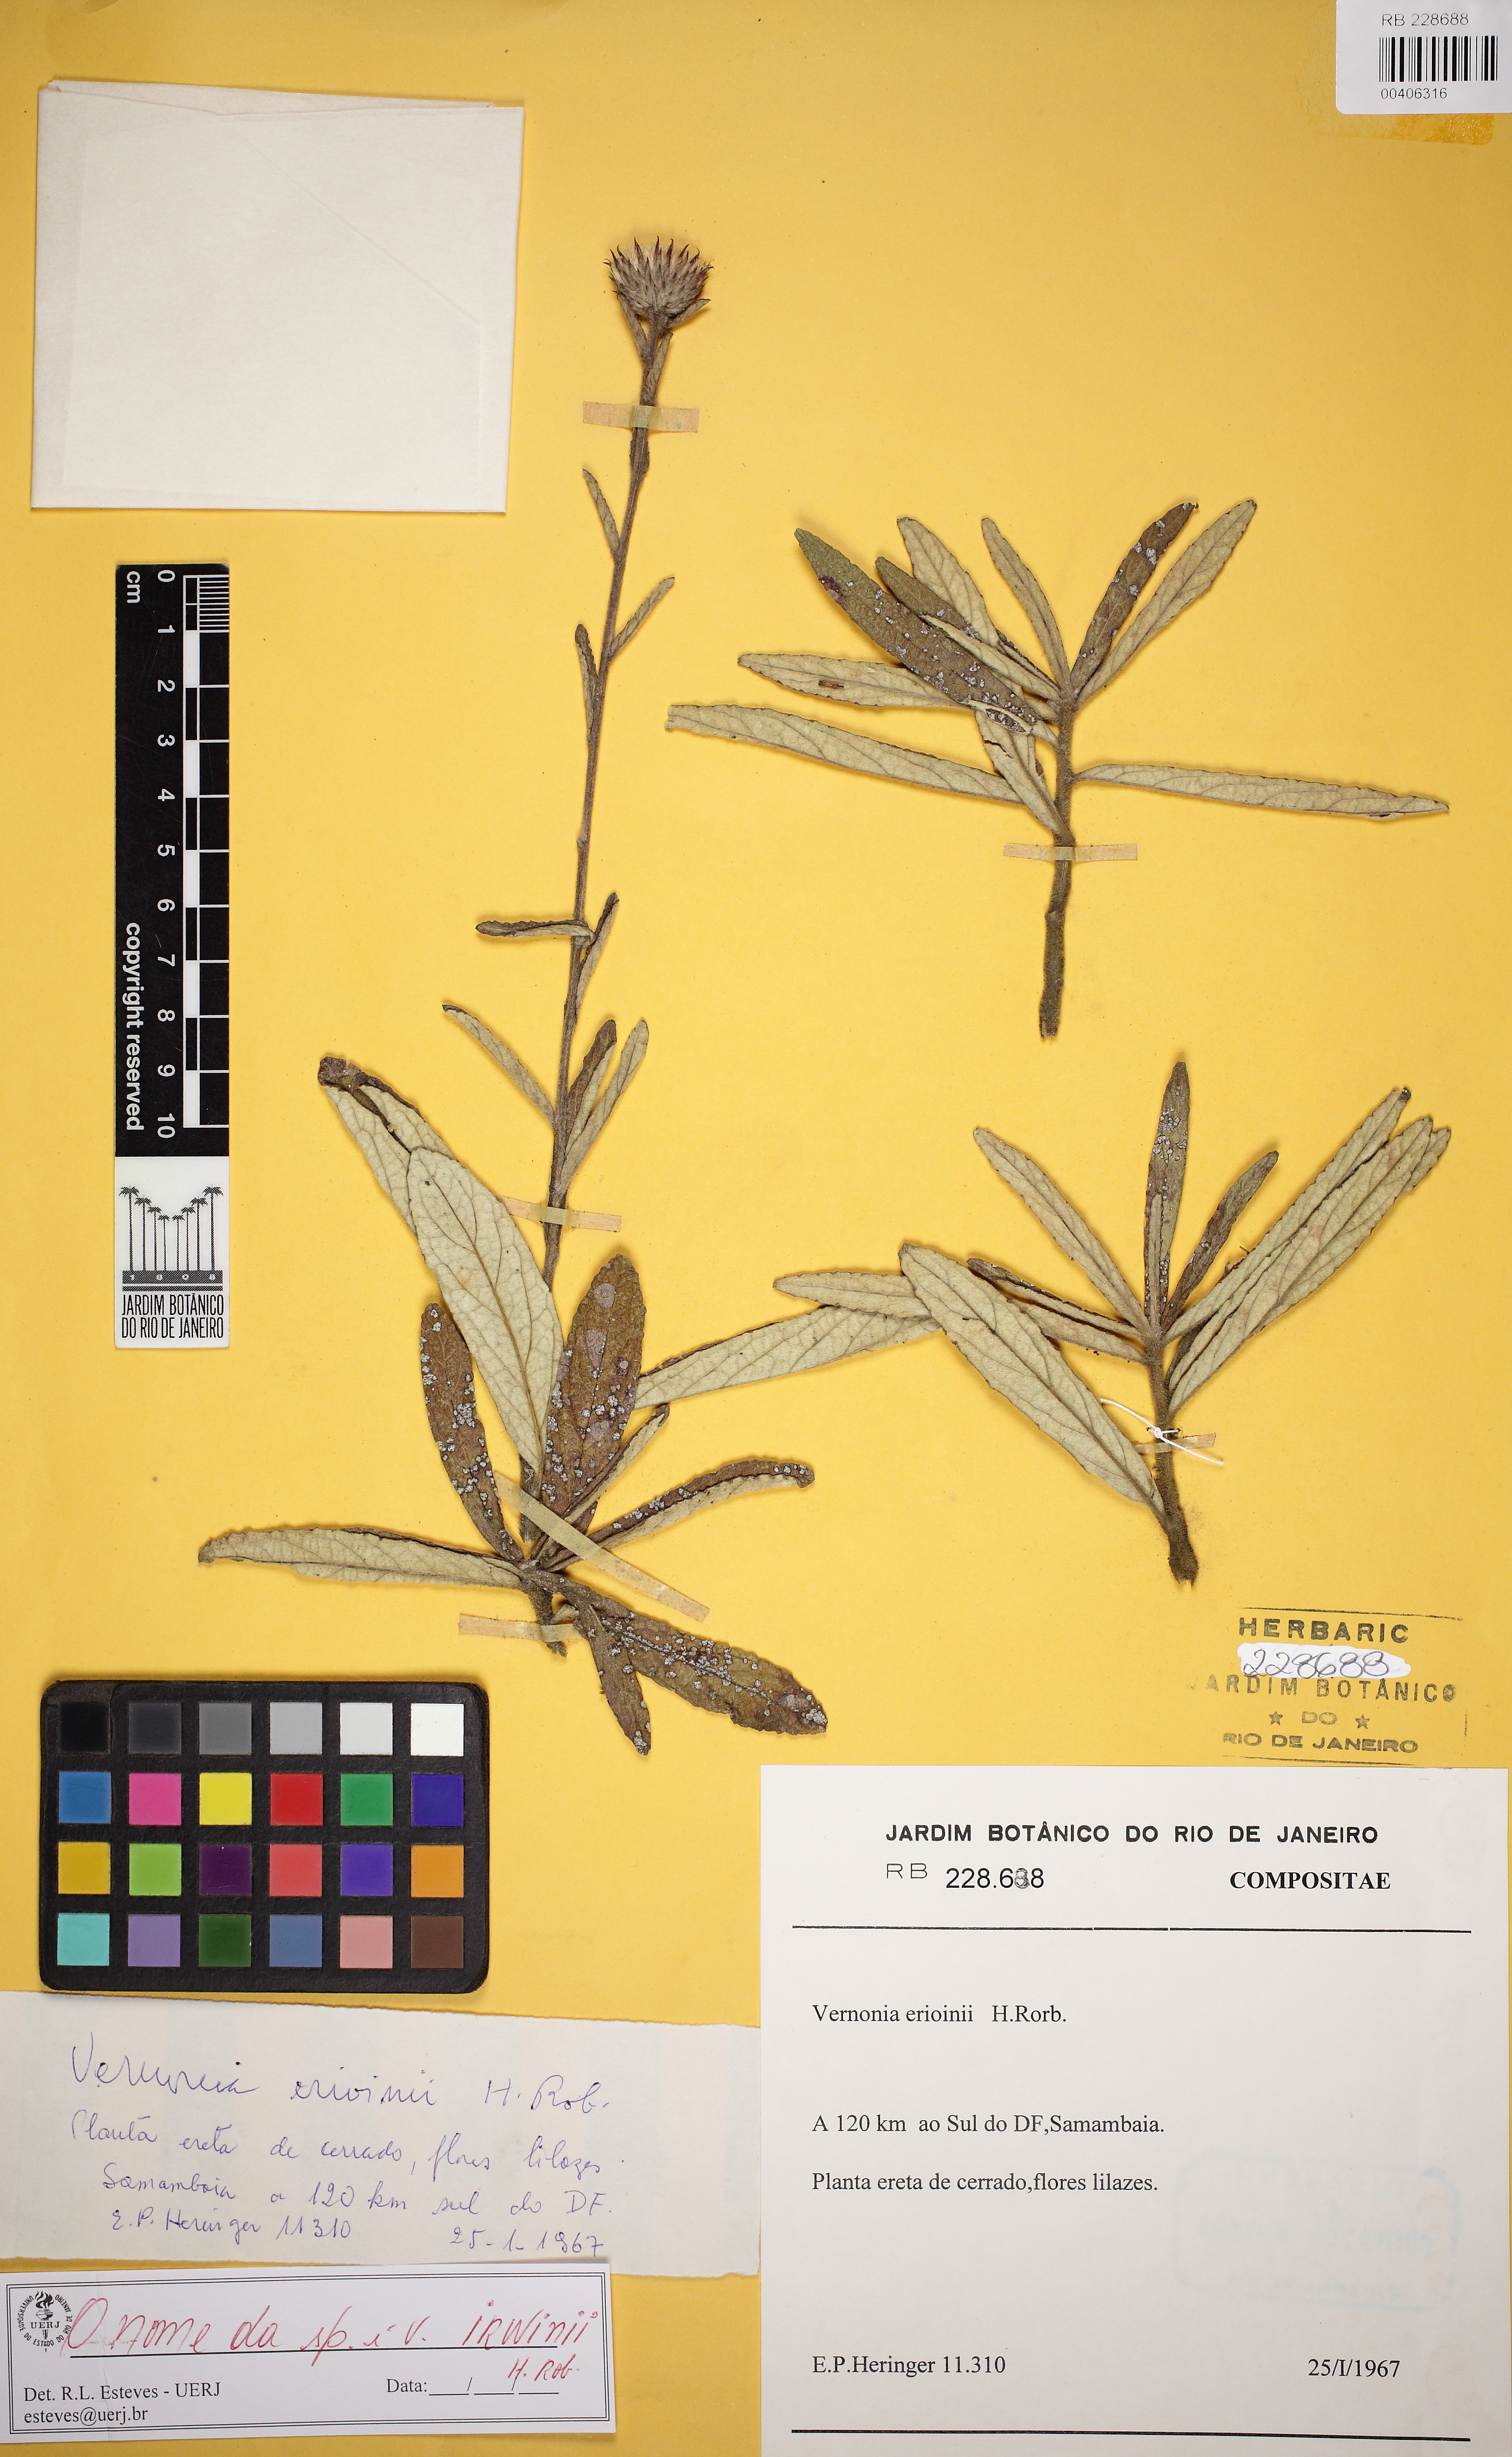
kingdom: Plantae
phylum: Tracheophyta
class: Magnoliopsida
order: Asterales
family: Asteraceae
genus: Lessingianthus
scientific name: Lessingianthus irwinii
